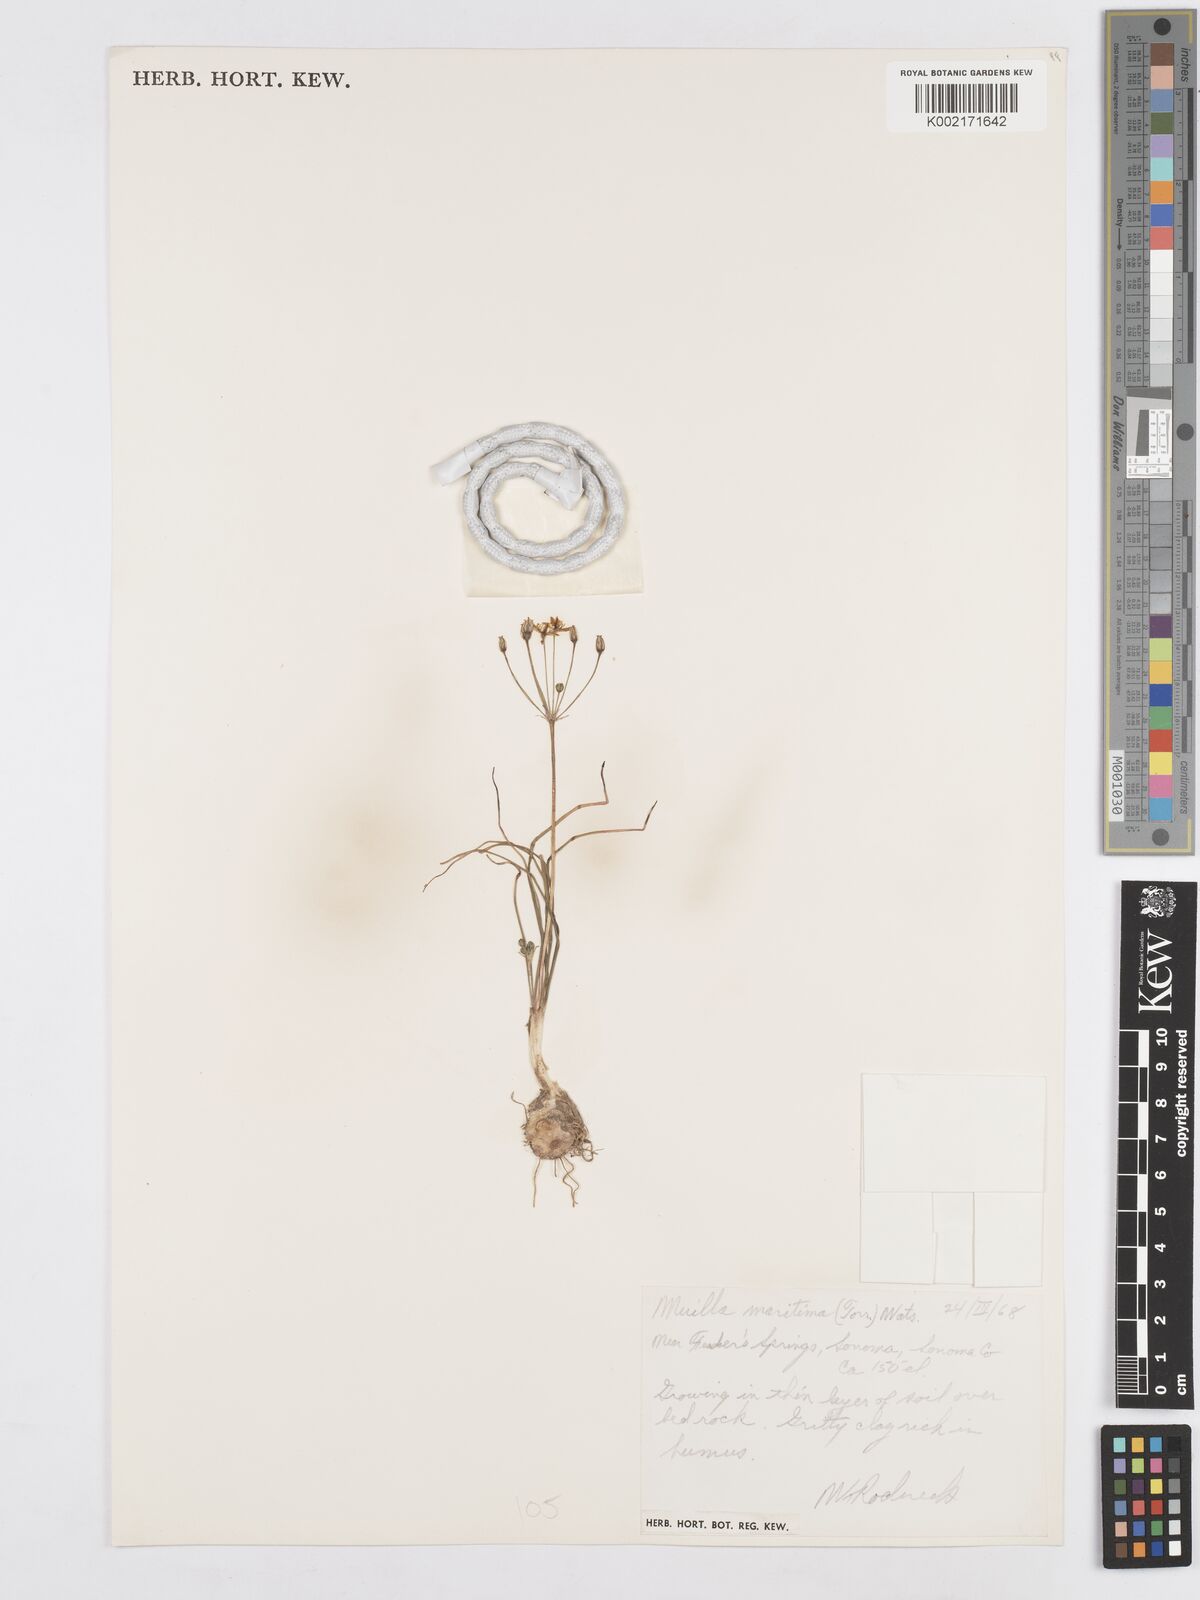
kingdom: Plantae
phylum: Tracheophyta
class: Liliopsida
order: Asparagales
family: Asparagaceae
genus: Muilla
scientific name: Muilla maritima
